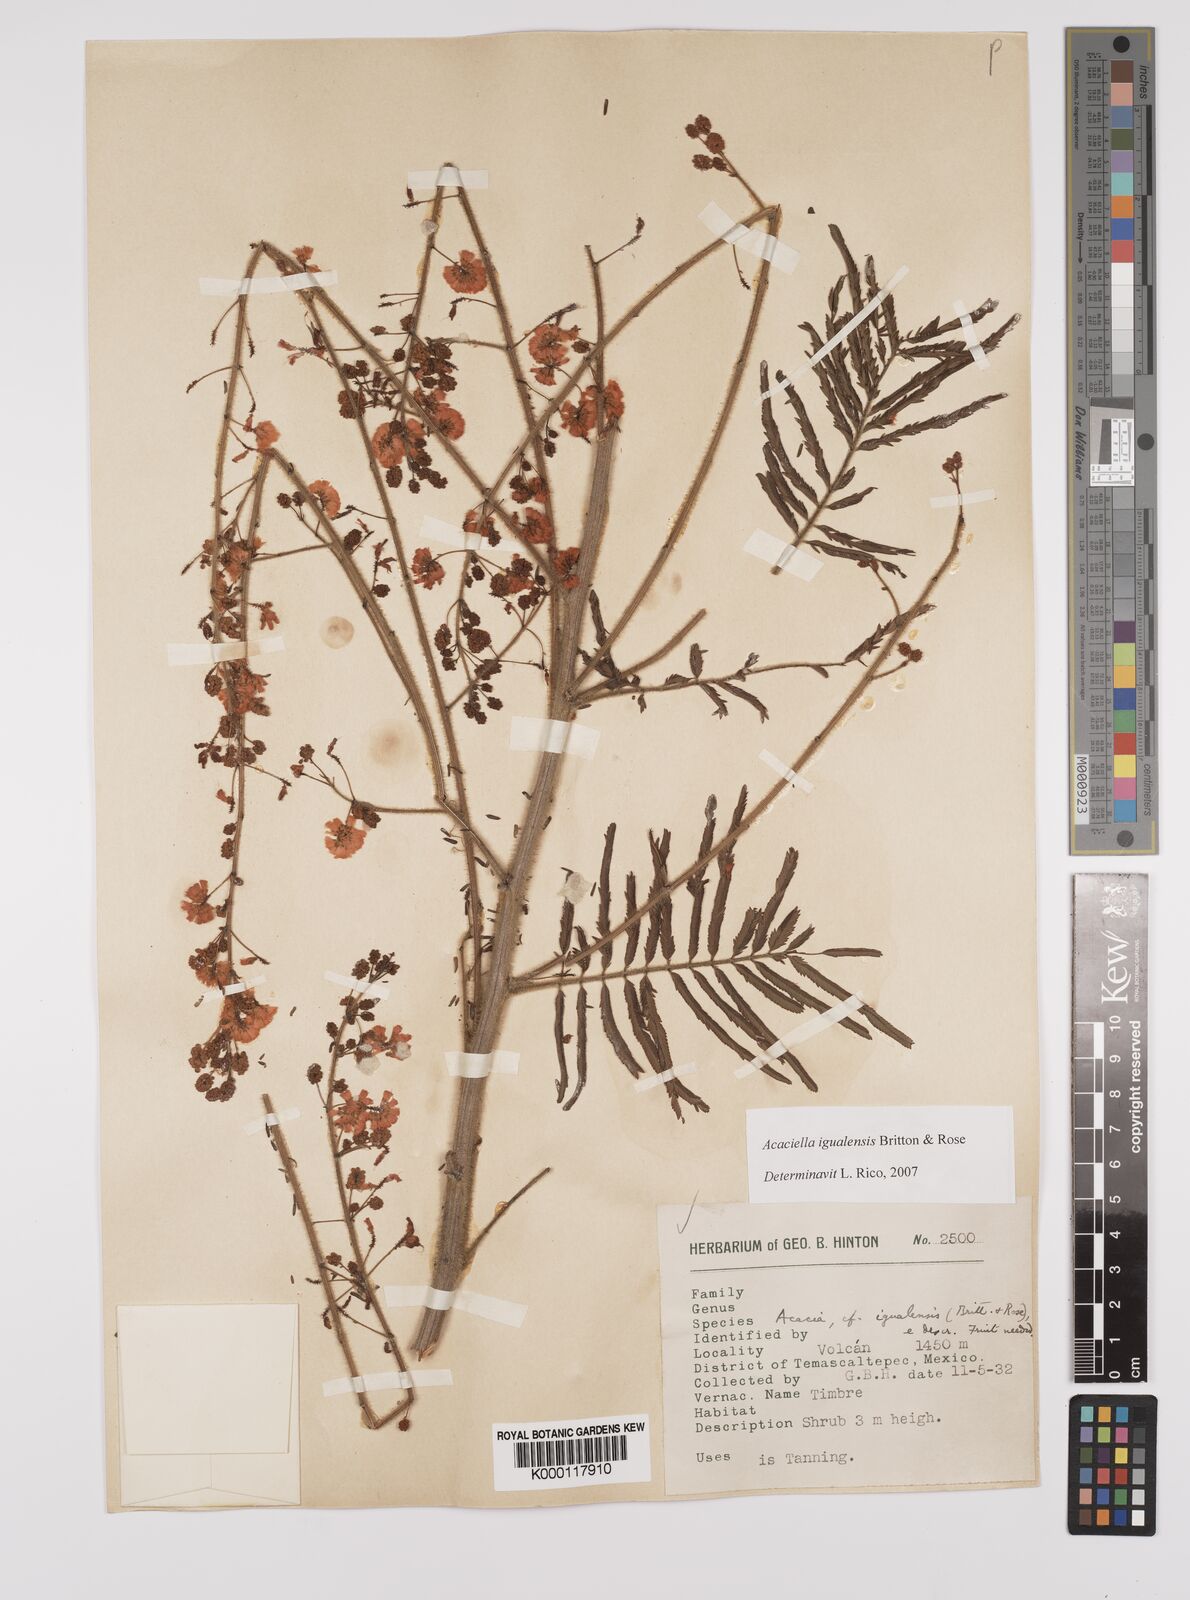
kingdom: Plantae
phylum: Tracheophyta
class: Magnoliopsida
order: Fabales
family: Fabaceae
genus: Acaciella
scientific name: Acaciella igualensis
